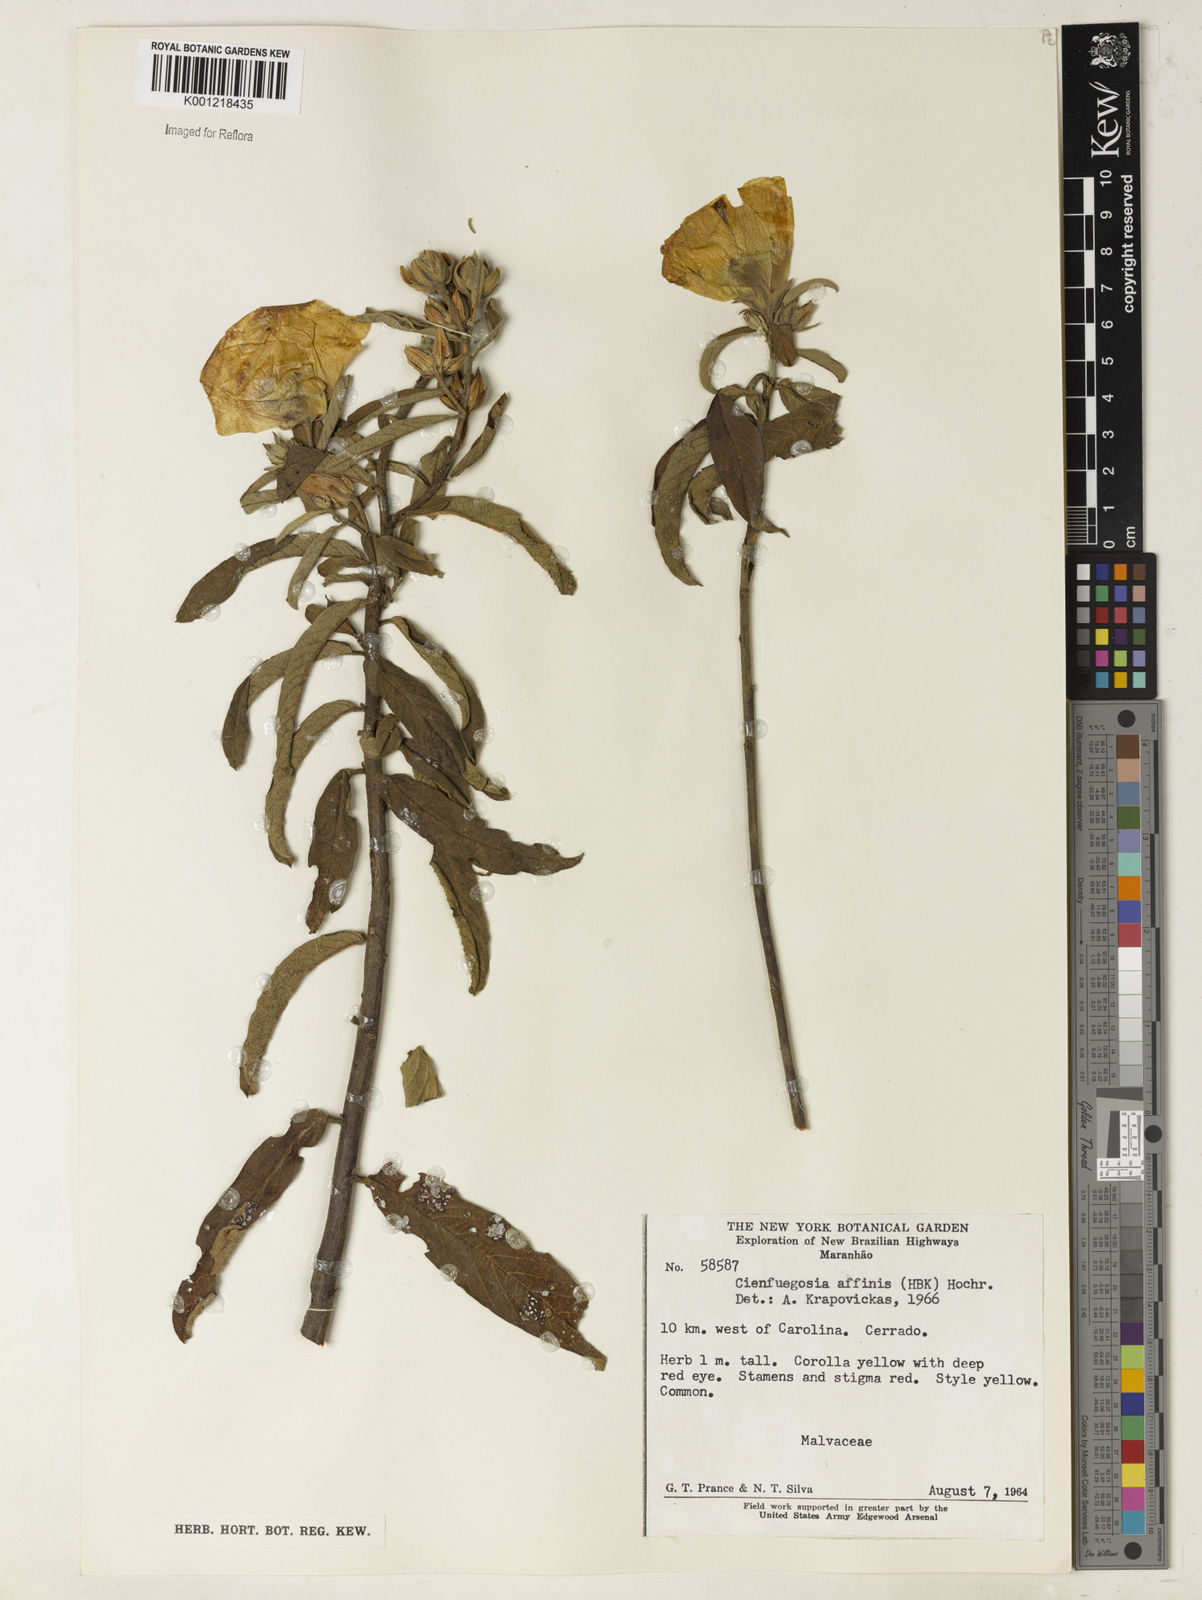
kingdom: Plantae
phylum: Tracheophyta
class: Magnoliopsida
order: Malvales
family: Malvaceae
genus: Cienfuegosia
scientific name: Cienfuegosia affinis
